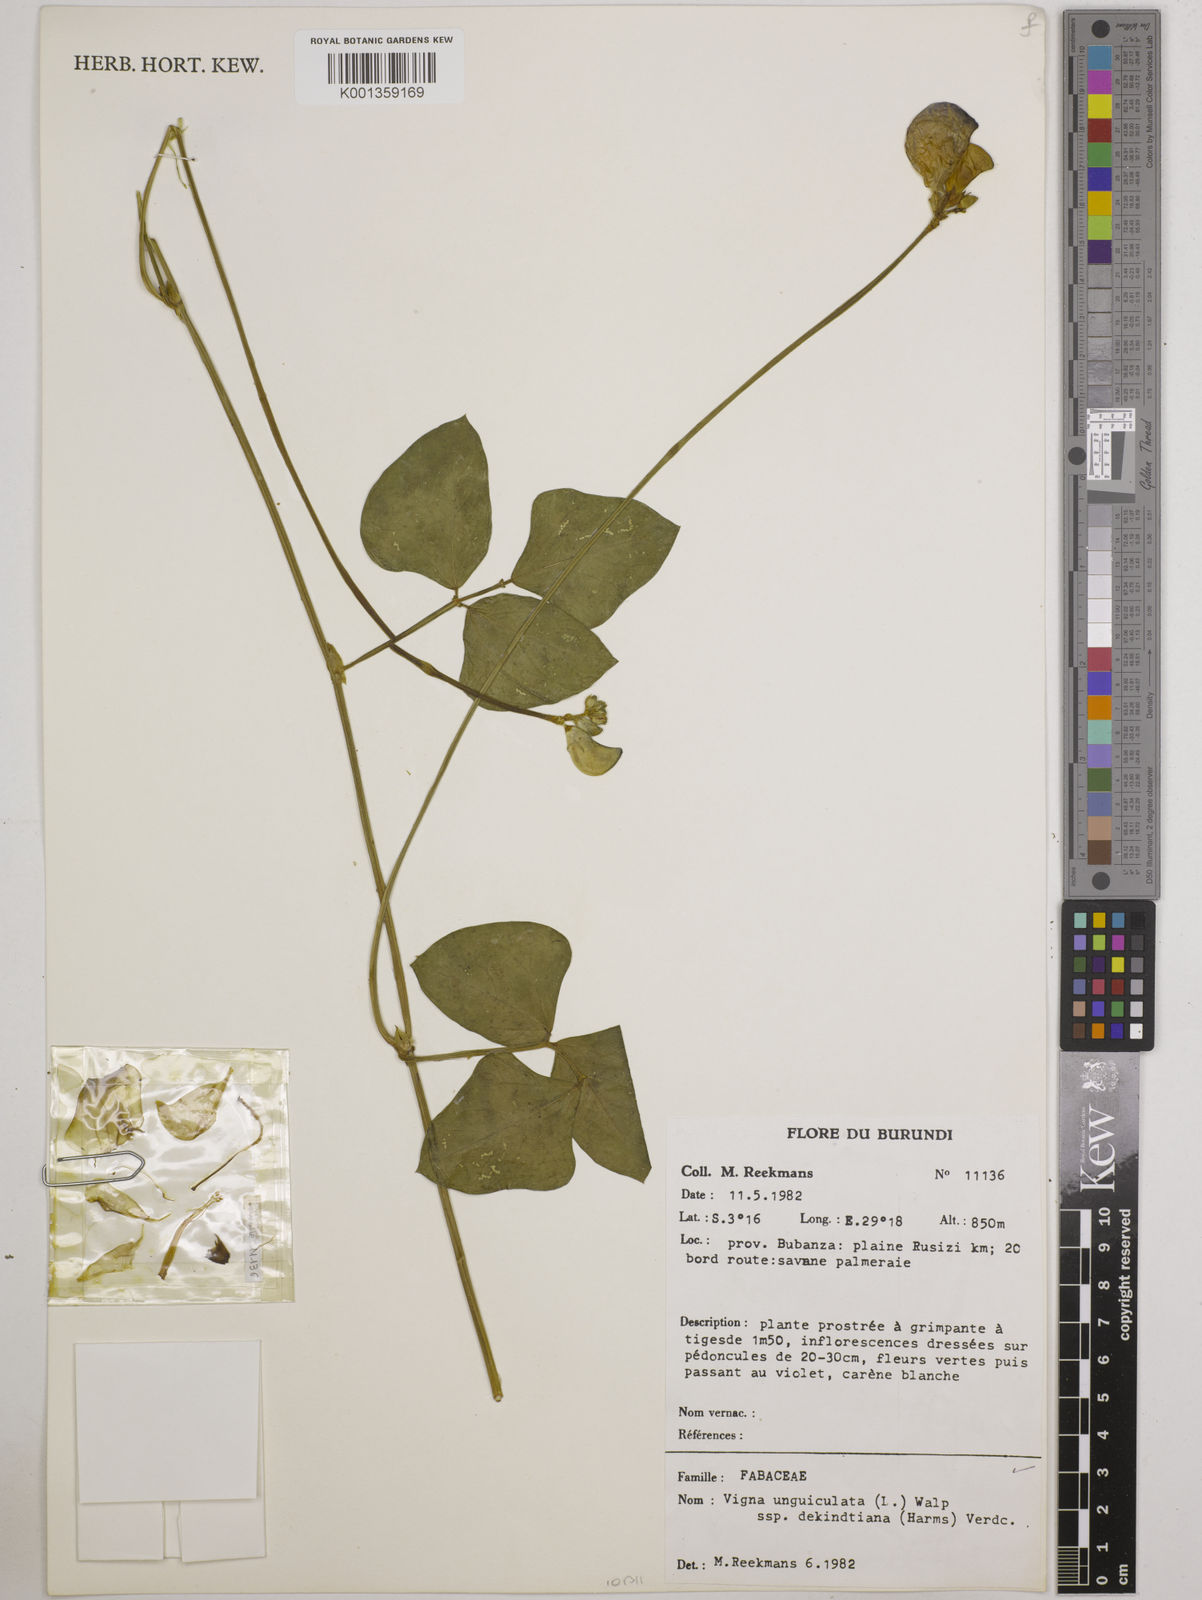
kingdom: Plantae
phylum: Tracheophyta
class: Magnoliopsida
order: Fabales
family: Fabaceae
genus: Vigna
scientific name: Vigna
